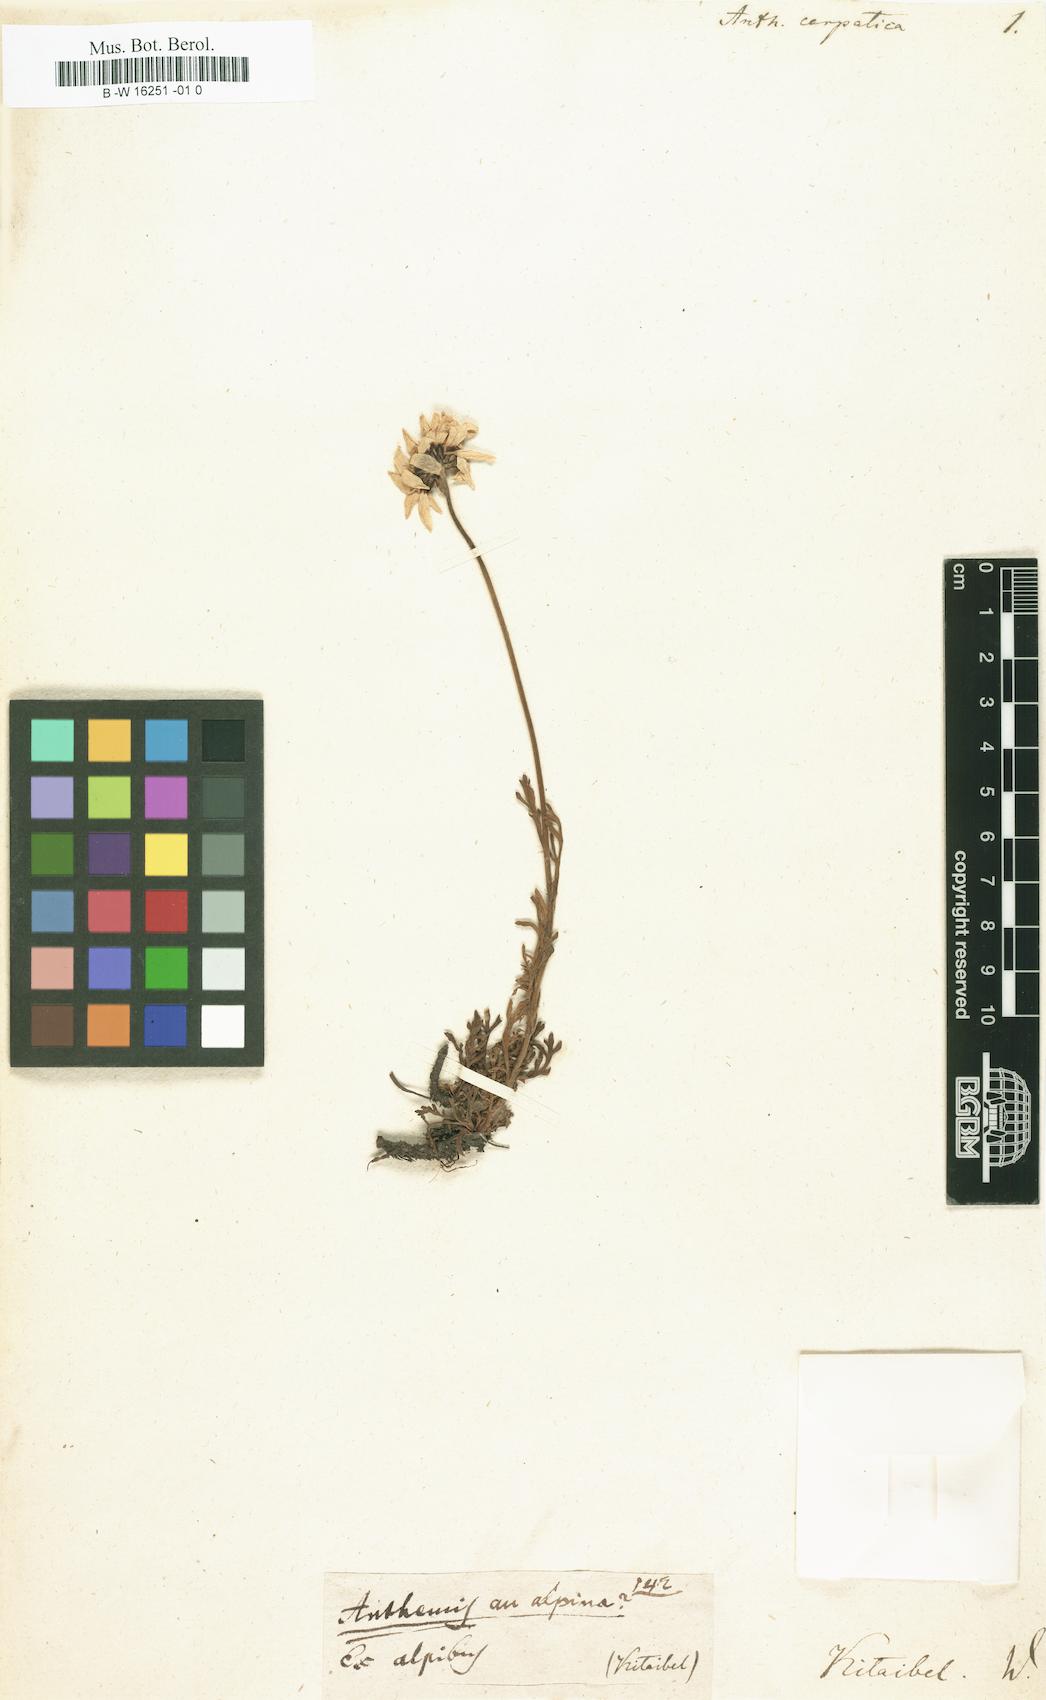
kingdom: Plantae
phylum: Tracheophyta
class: Magnoliopsida
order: Asterales
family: Asteraceae
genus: Anthemis
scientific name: Anthemis cretica
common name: Mountain dog-daisy
